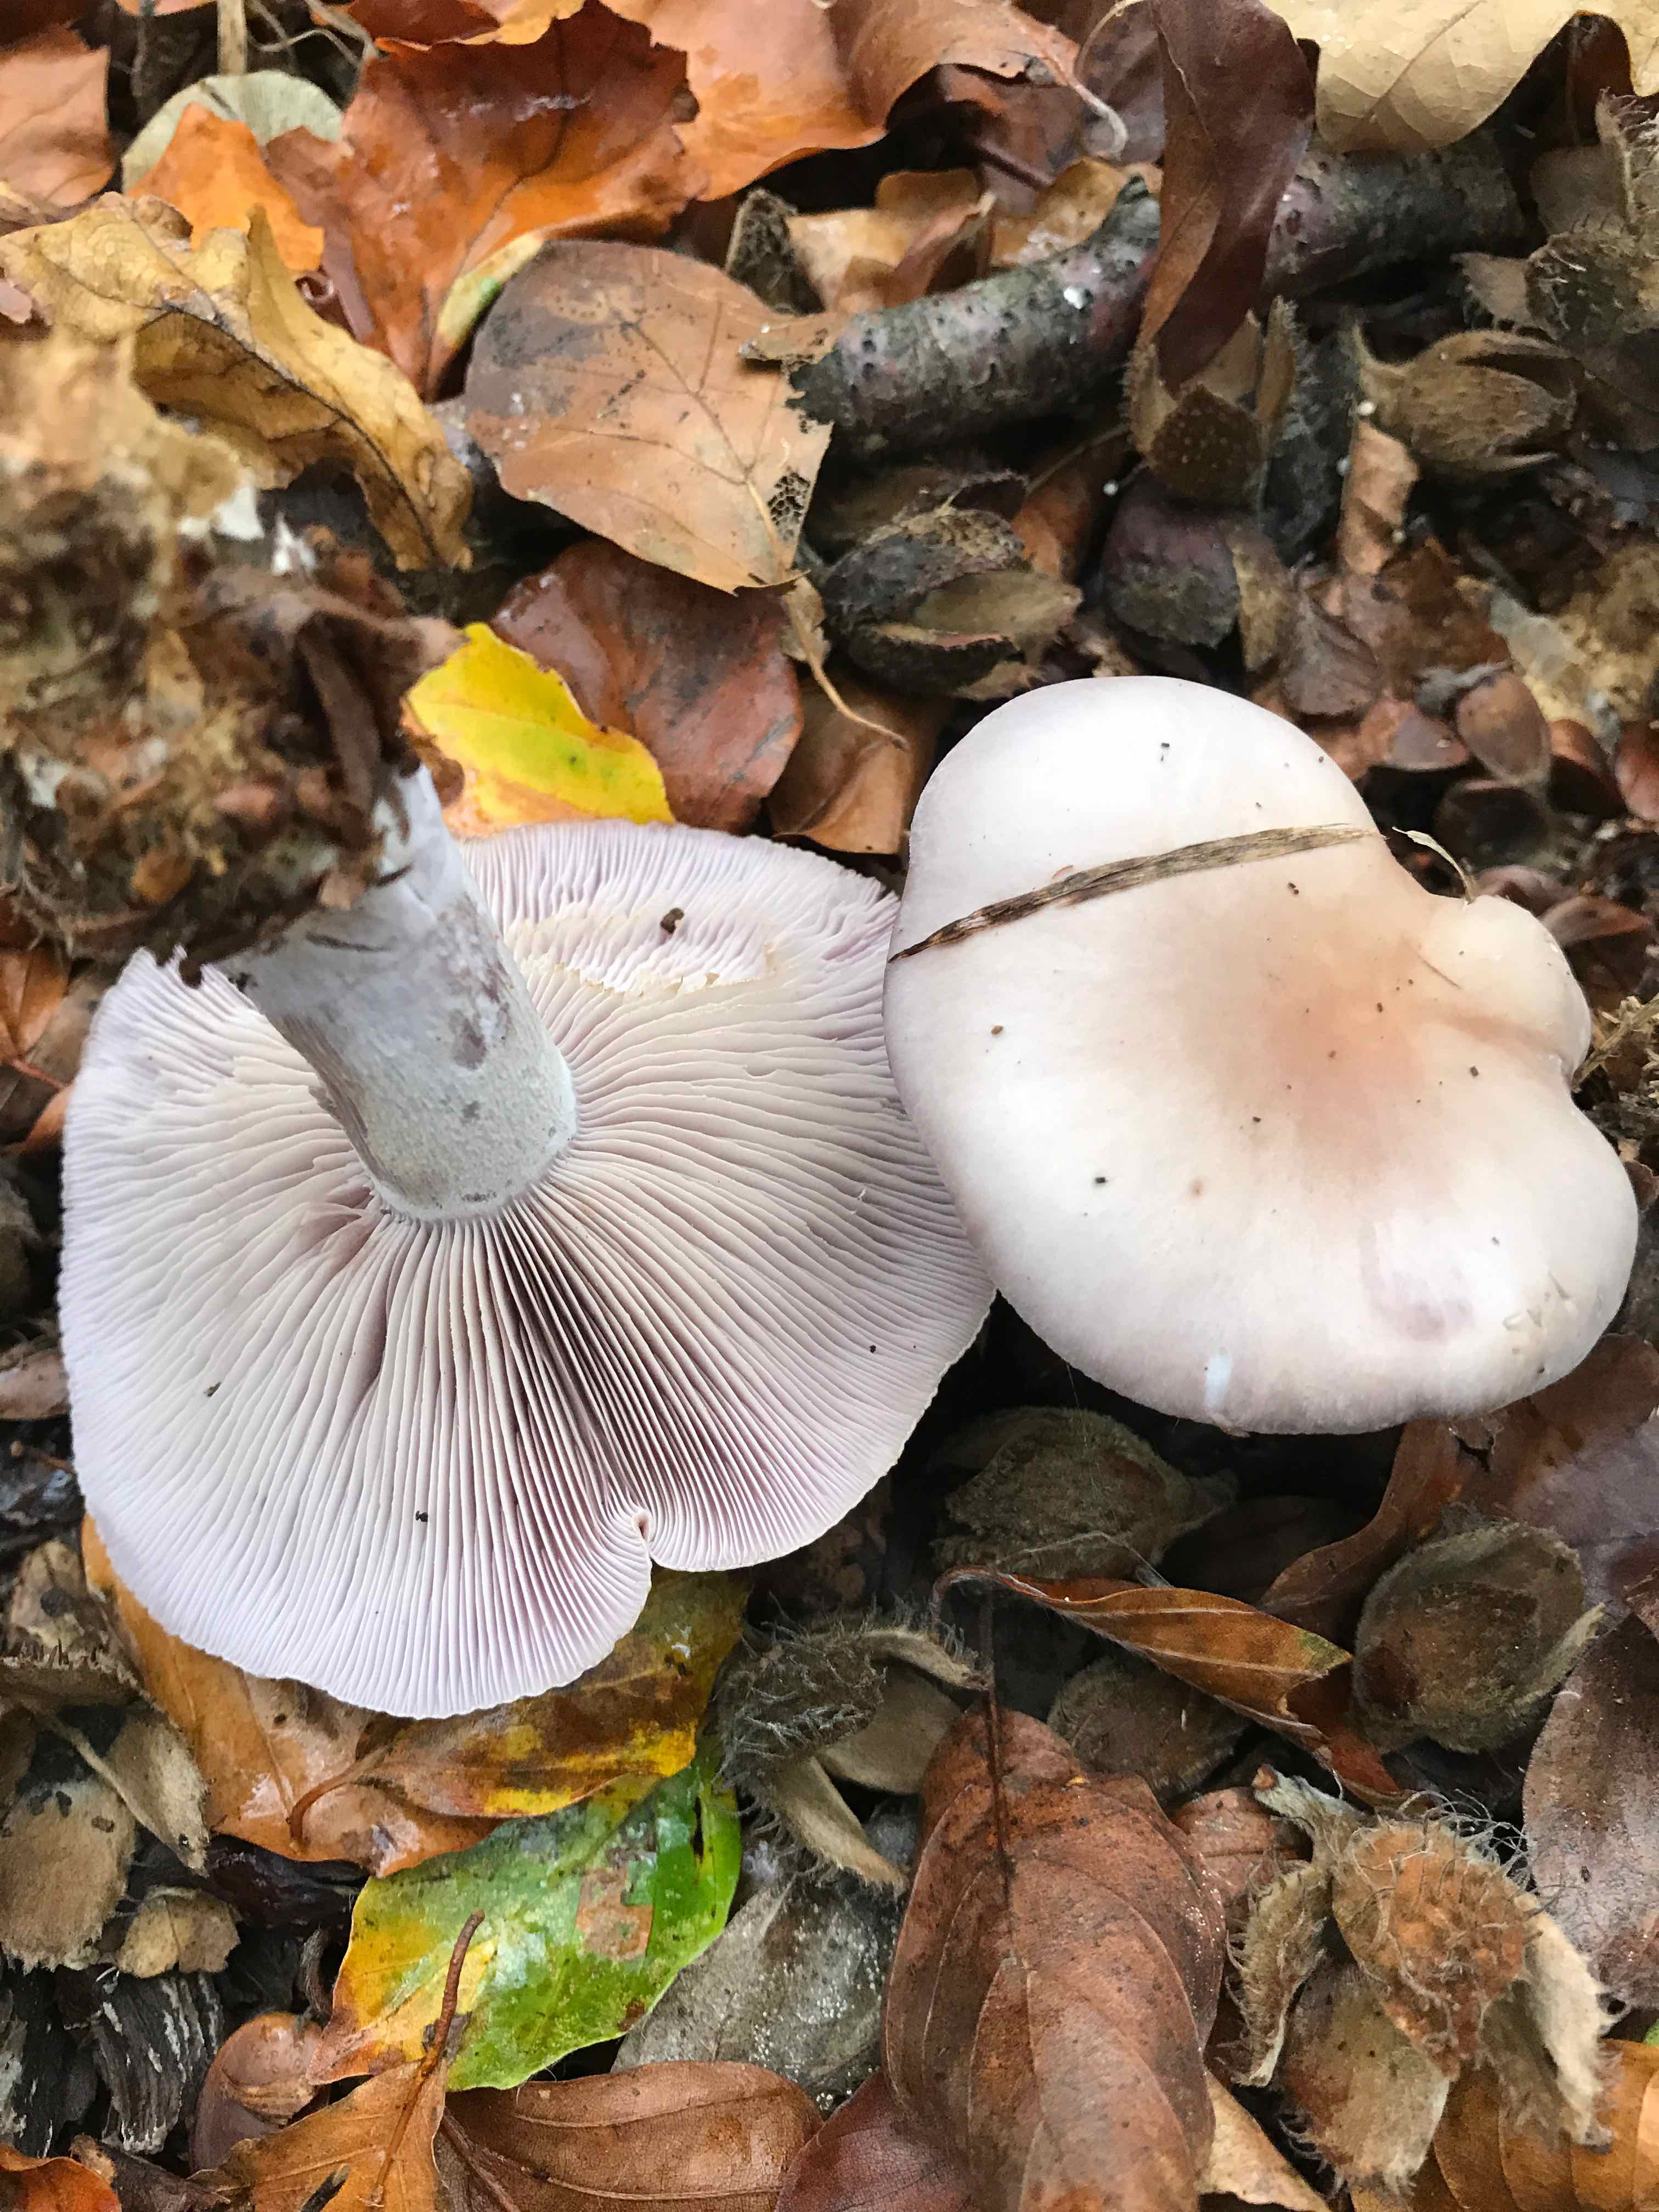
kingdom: Fungi
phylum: Basidiomycota
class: Agaricomycetes
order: Agaricales
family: Tricholomataceae
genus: Lepista
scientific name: Lepista nuda
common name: violet hekseringshat
